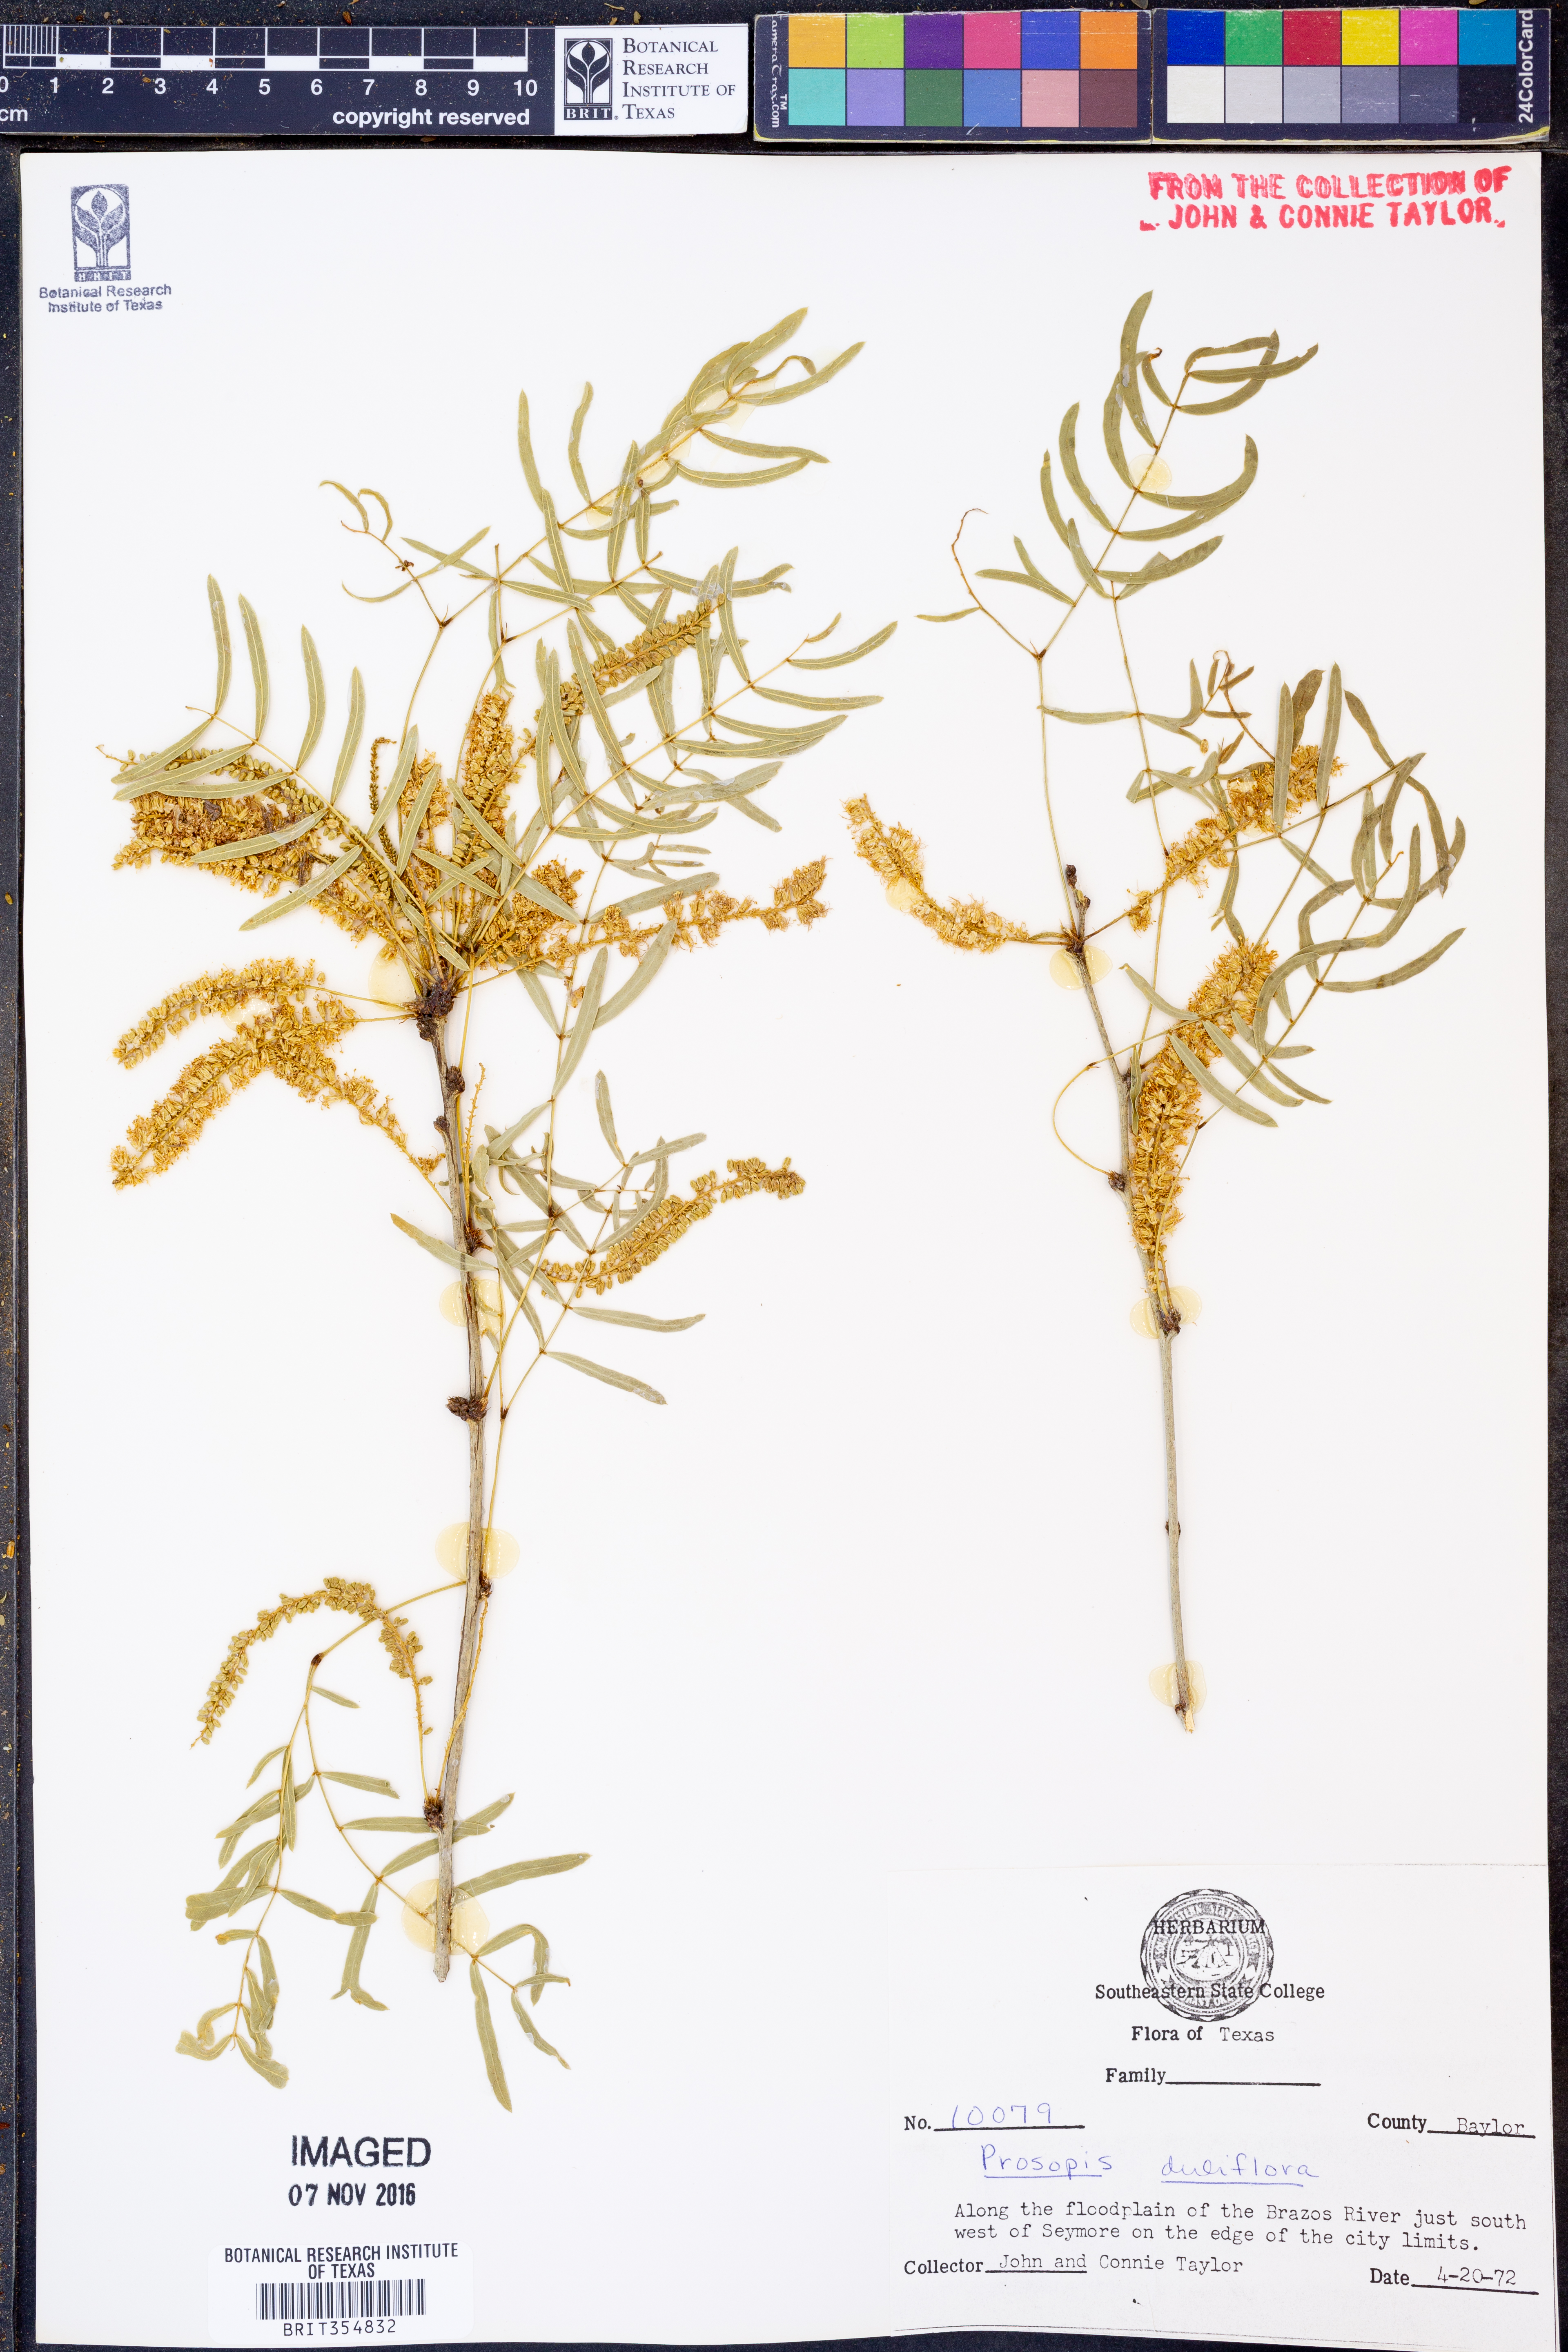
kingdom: Plantae
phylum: Tracheophyta
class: Magnoliopsida
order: Fabales
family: Fabaceae
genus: Prosopis
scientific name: Prosopis juliflora
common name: Mesquite
